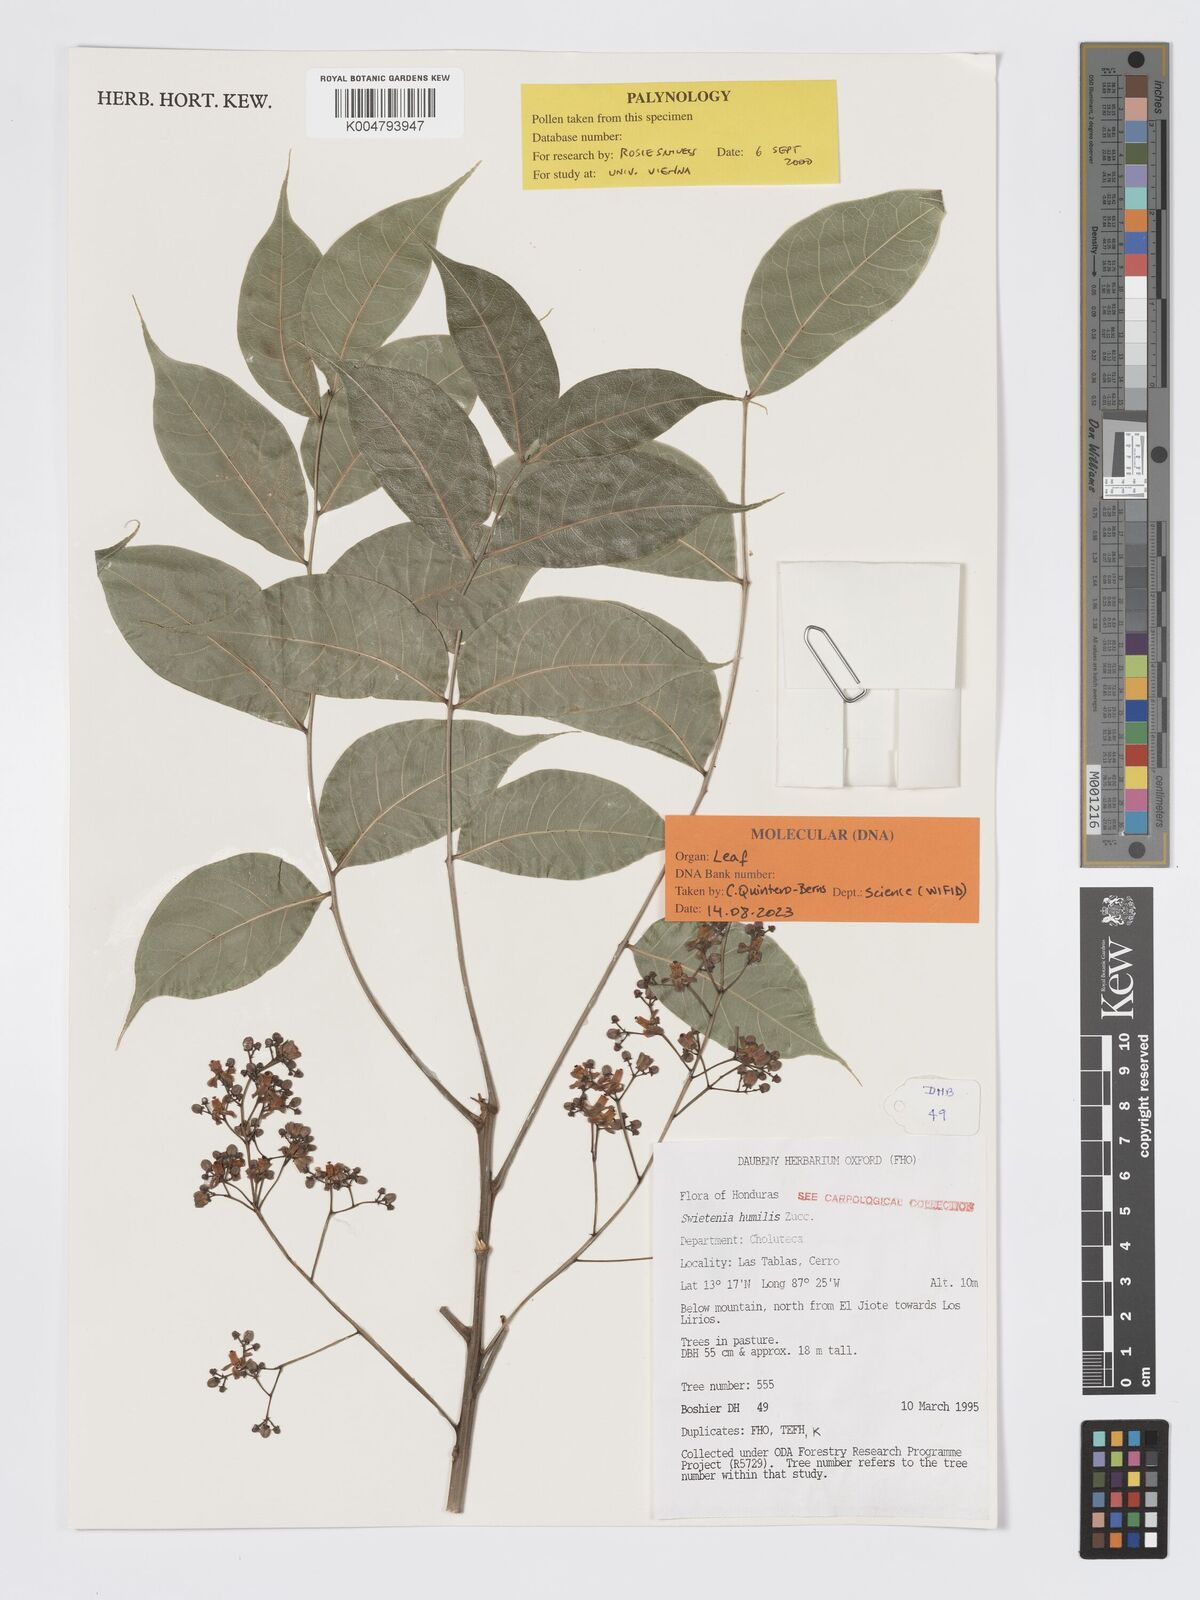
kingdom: Plantae
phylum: Tracheophyta
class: Magnoliopsida
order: Sapindales
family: Meliaceae
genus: Swietenia
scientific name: Swietenia humilis
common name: Pacific coast mahogany
